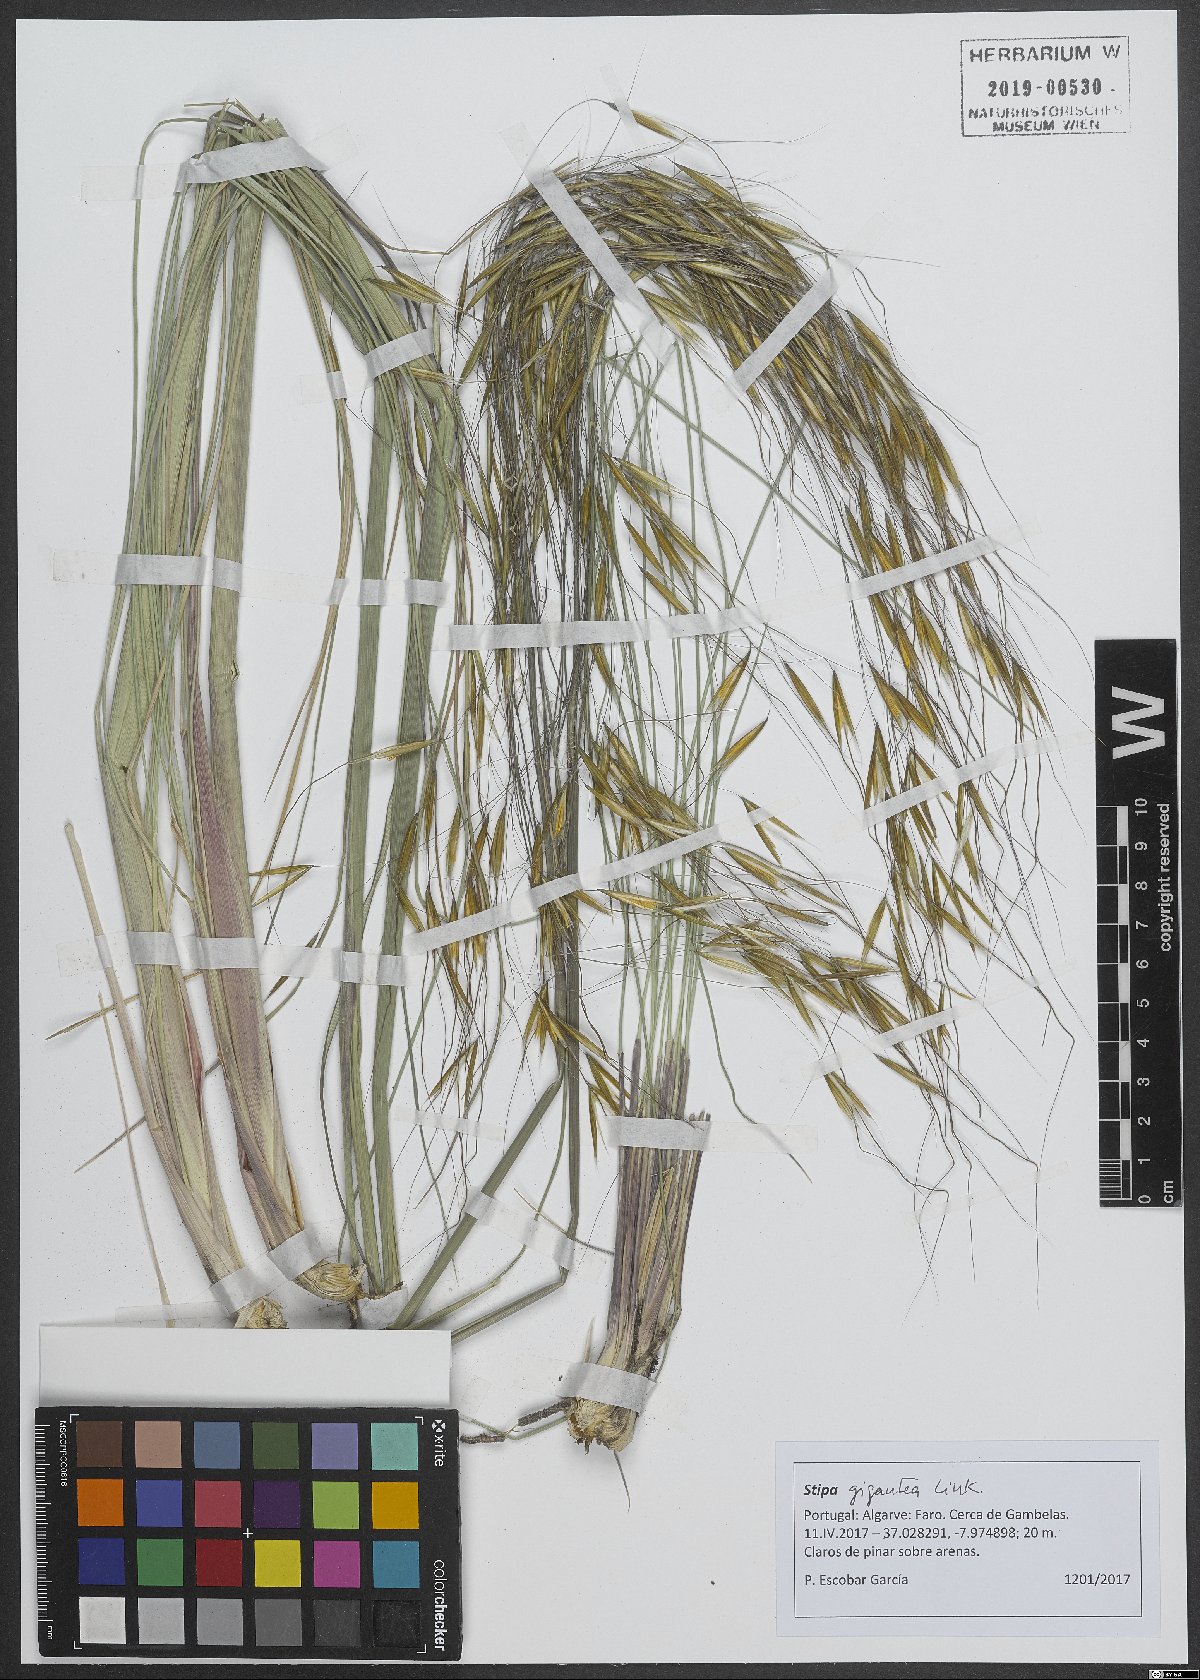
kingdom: Plantae
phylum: Tracheophyta
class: Liliopsida
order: Poales
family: Poaceae
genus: Celtica
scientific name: Celtica gigantea
